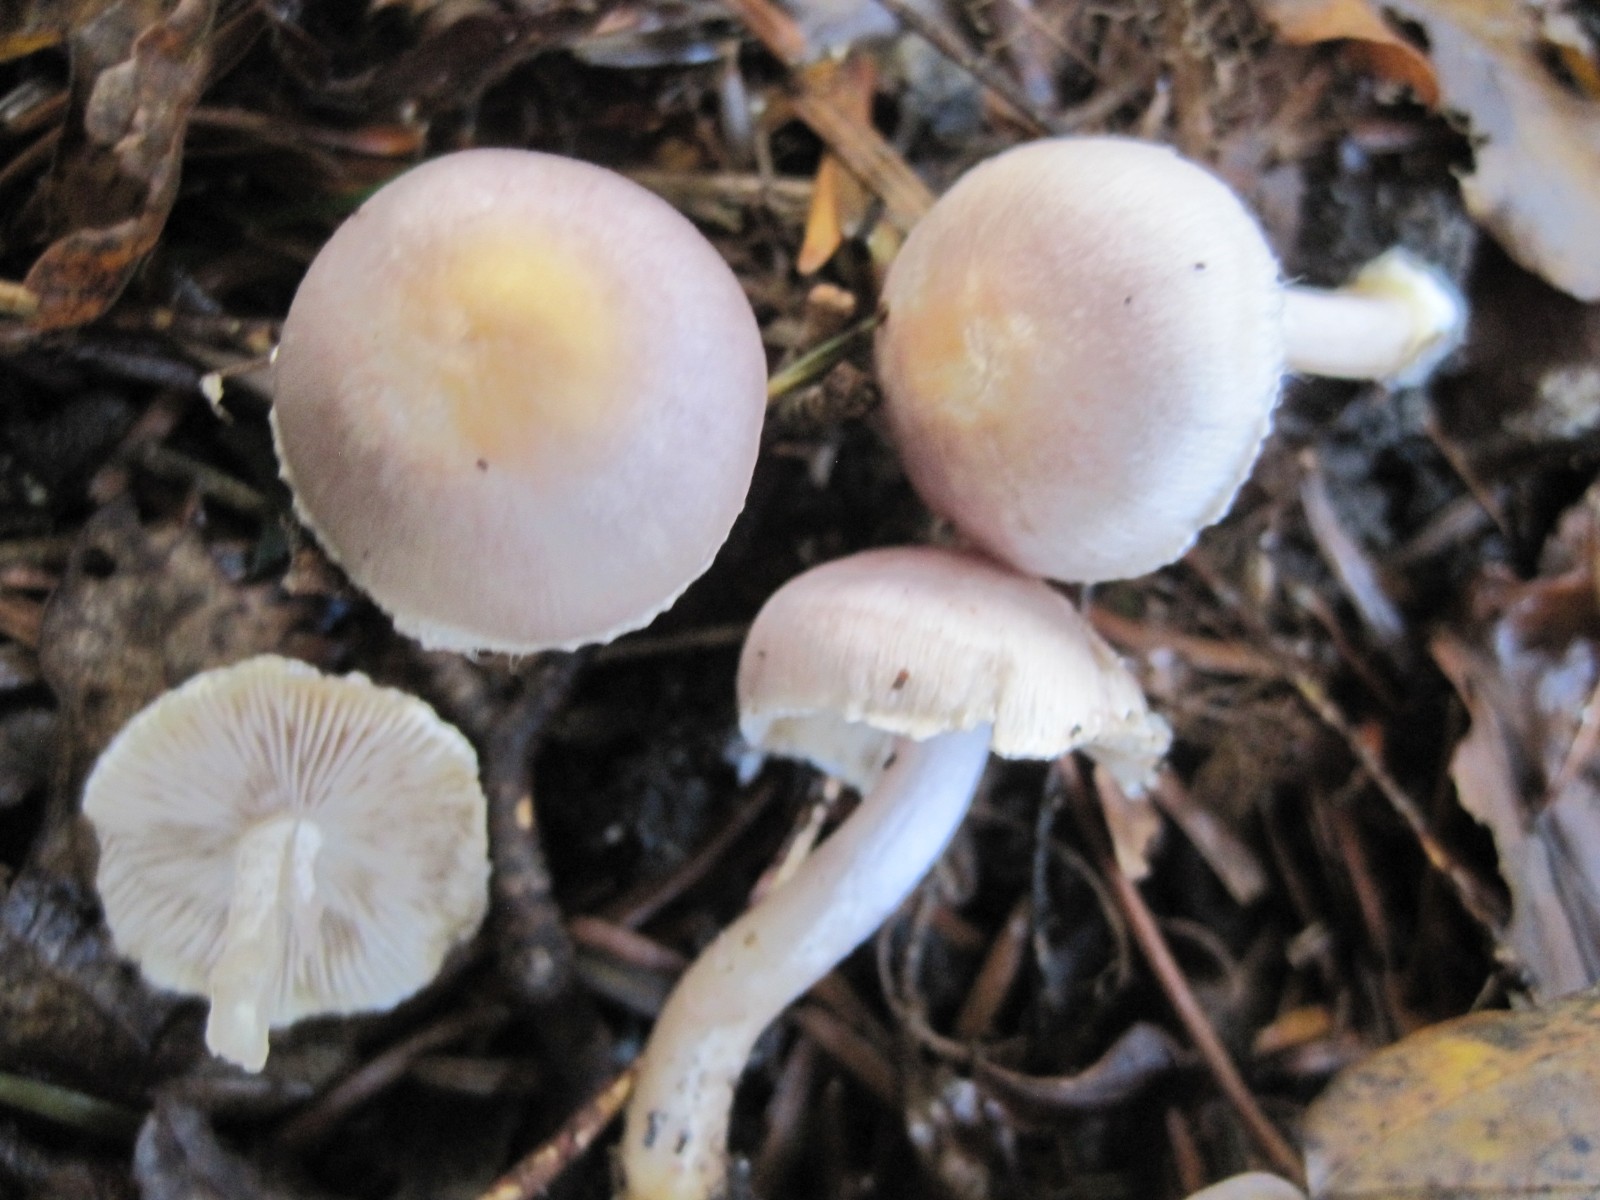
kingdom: Fungi
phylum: Basidiomycota
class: Agaricomycetes
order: Agaricales
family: Inocybaceae
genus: Inocybe
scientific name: Inocybe
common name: almindelig trævlhat
